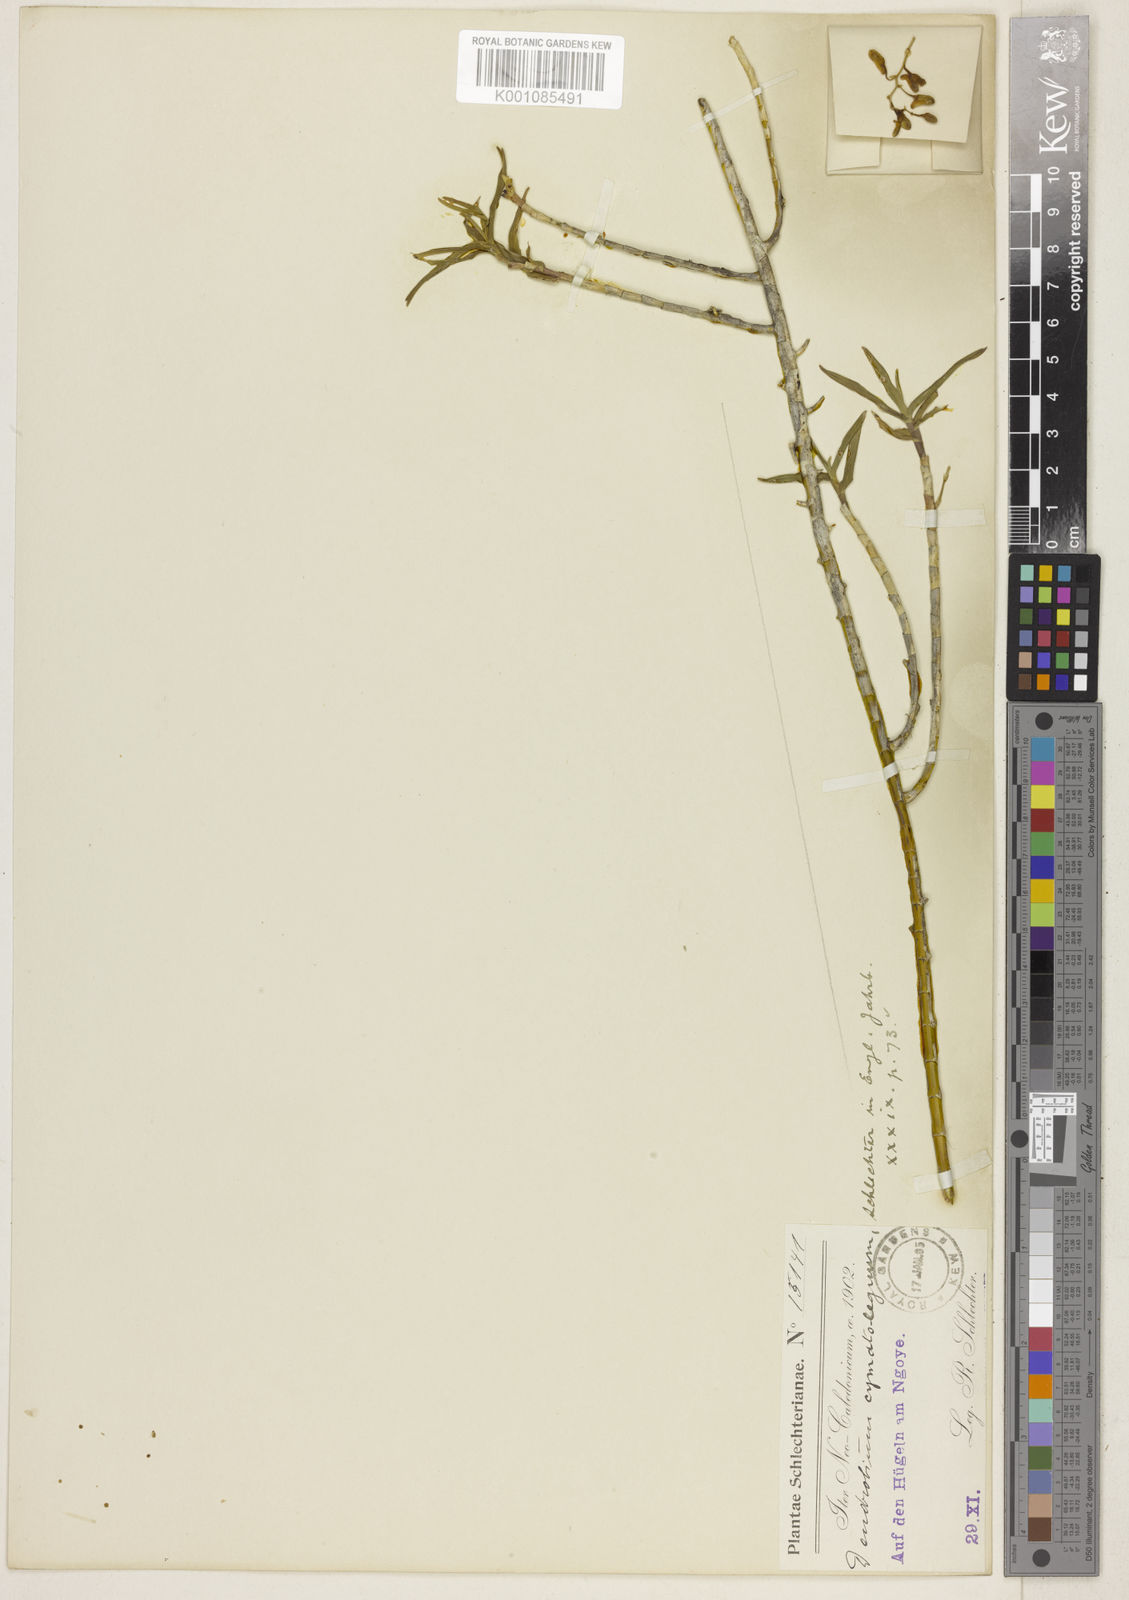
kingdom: Plantae
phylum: Tracheophyta
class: Liliopsida
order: Asparagales
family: Orchidaceae
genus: Dendrobium
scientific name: Dendrobium cymatoleguum
